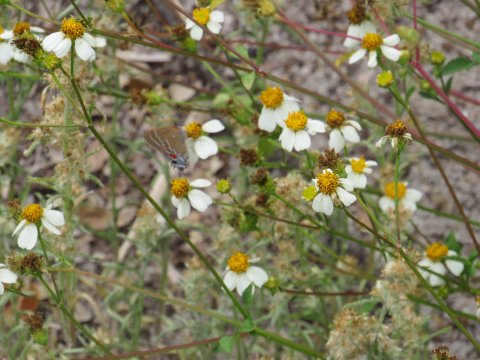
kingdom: Animalia
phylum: Arthropoda
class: Insecta
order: Lepidoptera
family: Lycaenidae
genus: Fixsenia
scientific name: Fixsenia favonius
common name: Oak Hairstreak
